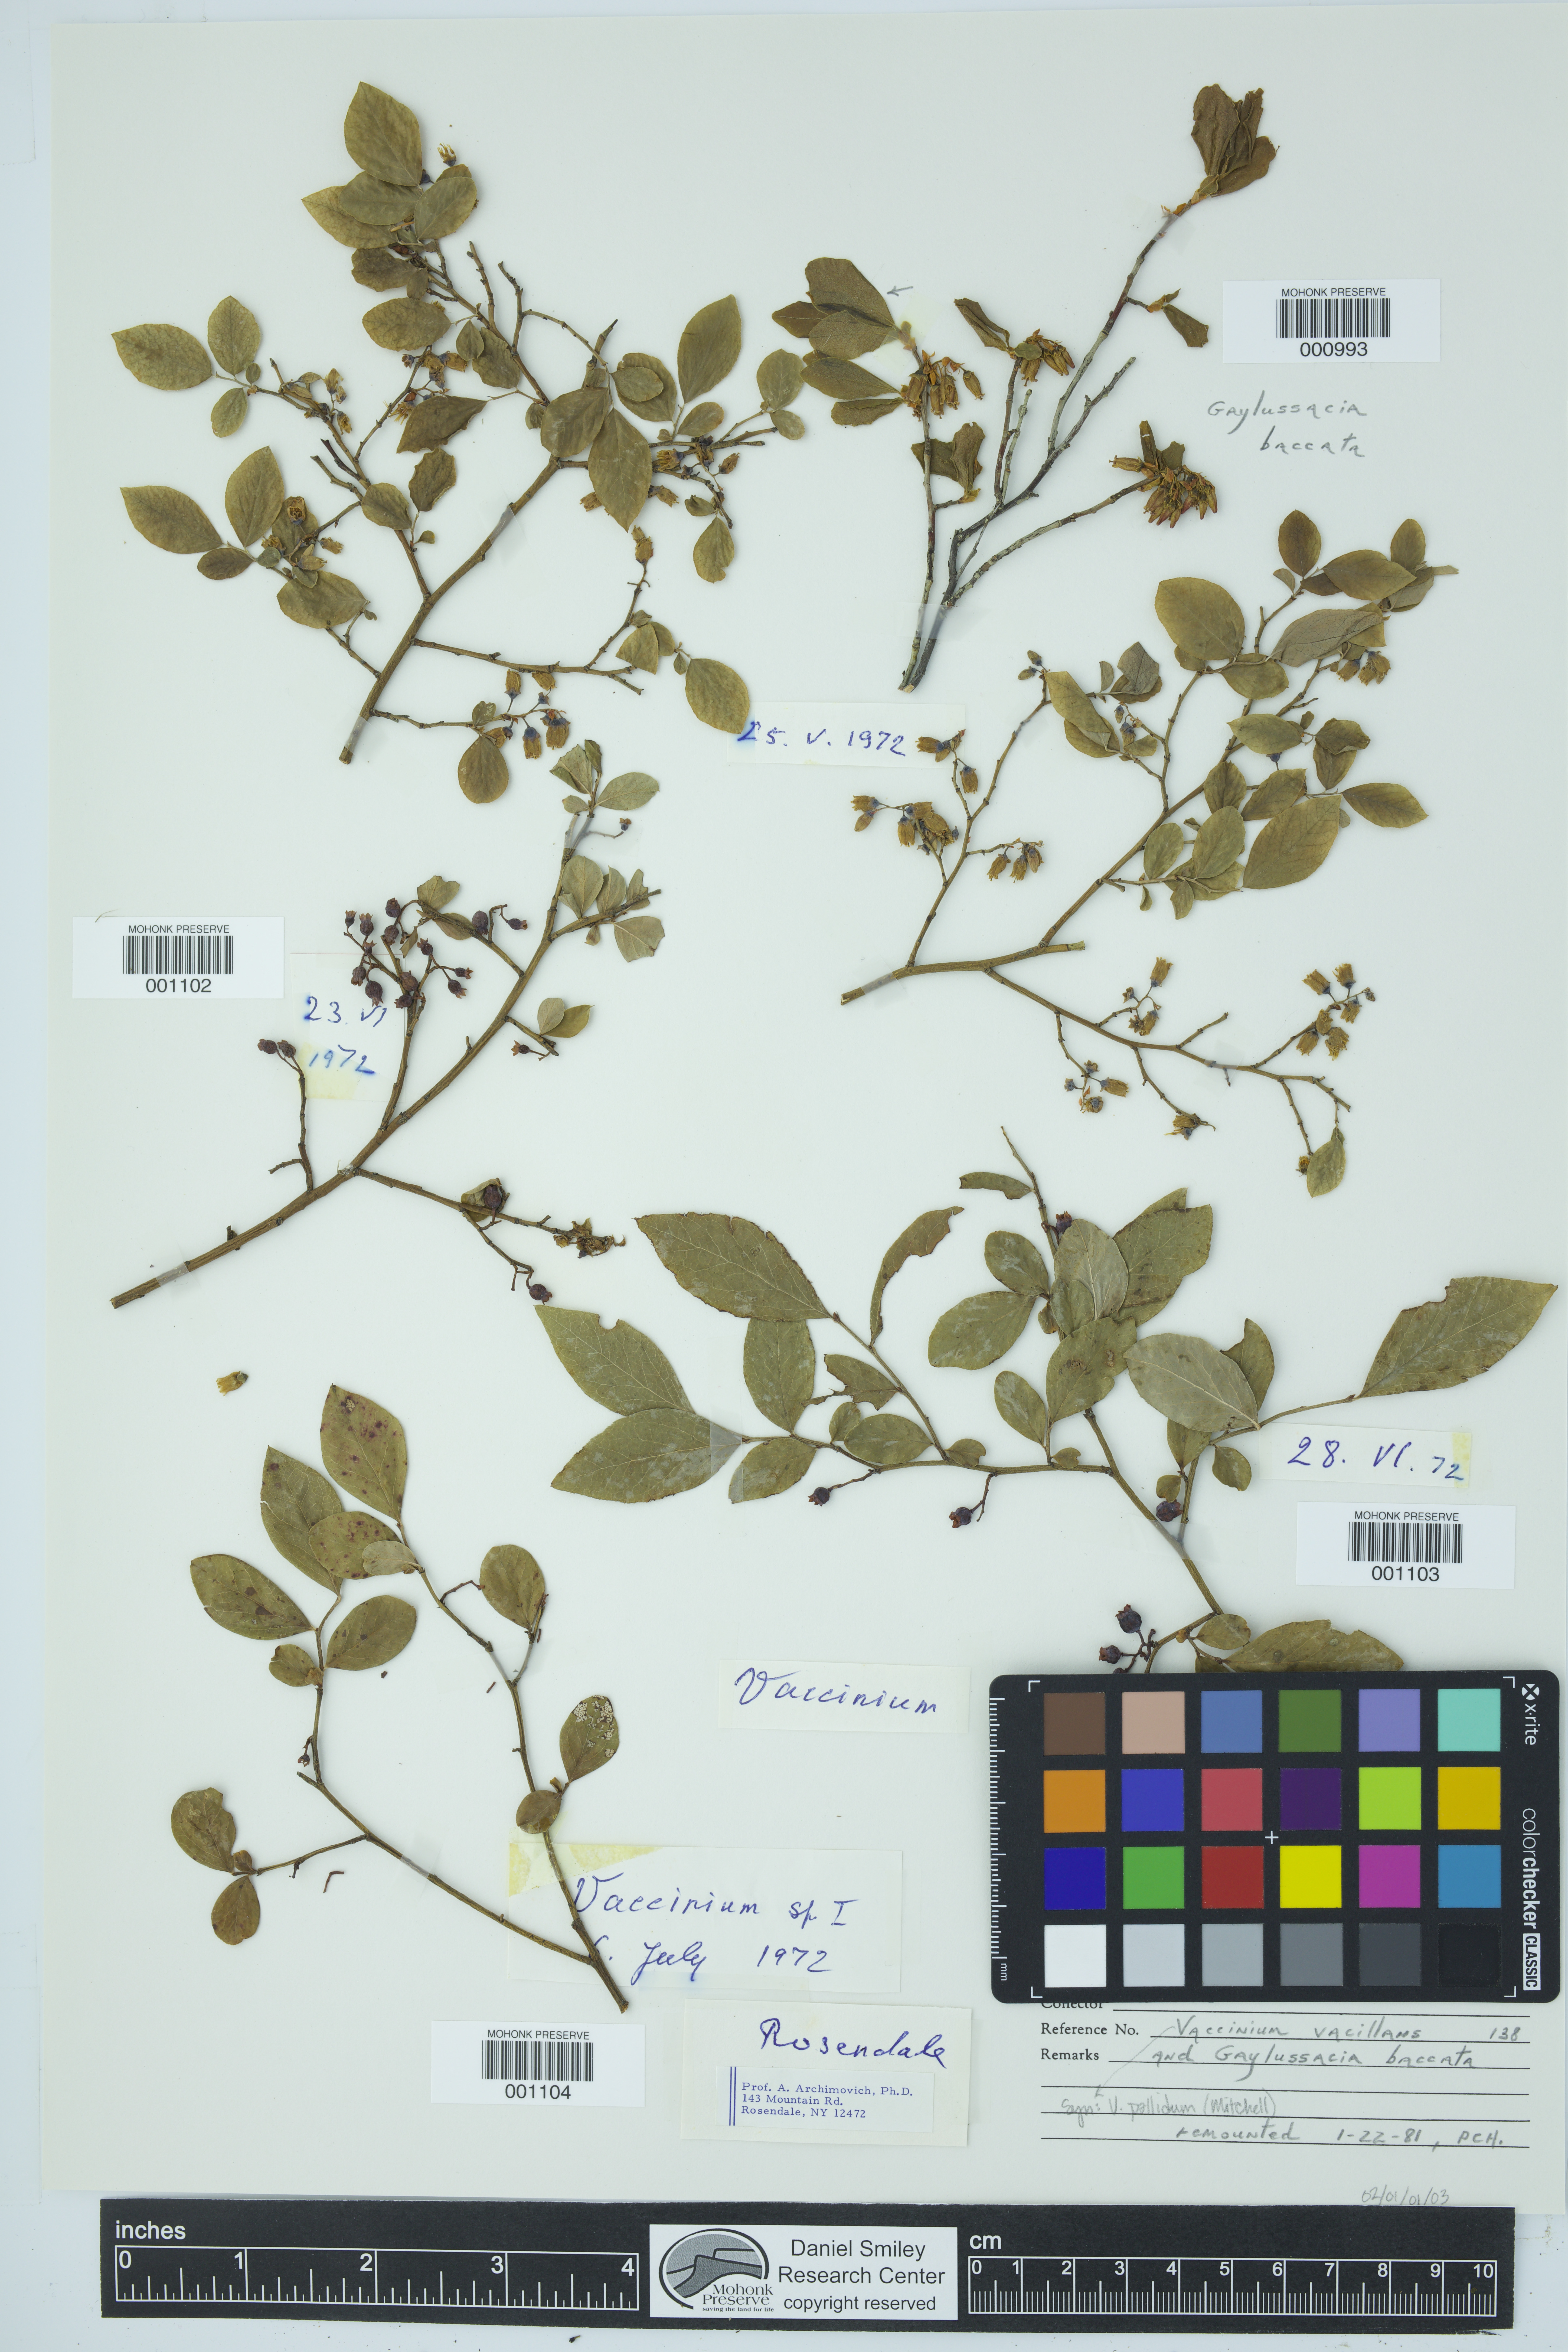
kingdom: Plantae
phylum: Tracheophyta
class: Magnoliopsida
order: Ericales
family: Ericaceae
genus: Gaylussacia
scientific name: Gaylussacia baccata
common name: Black huckleberry
